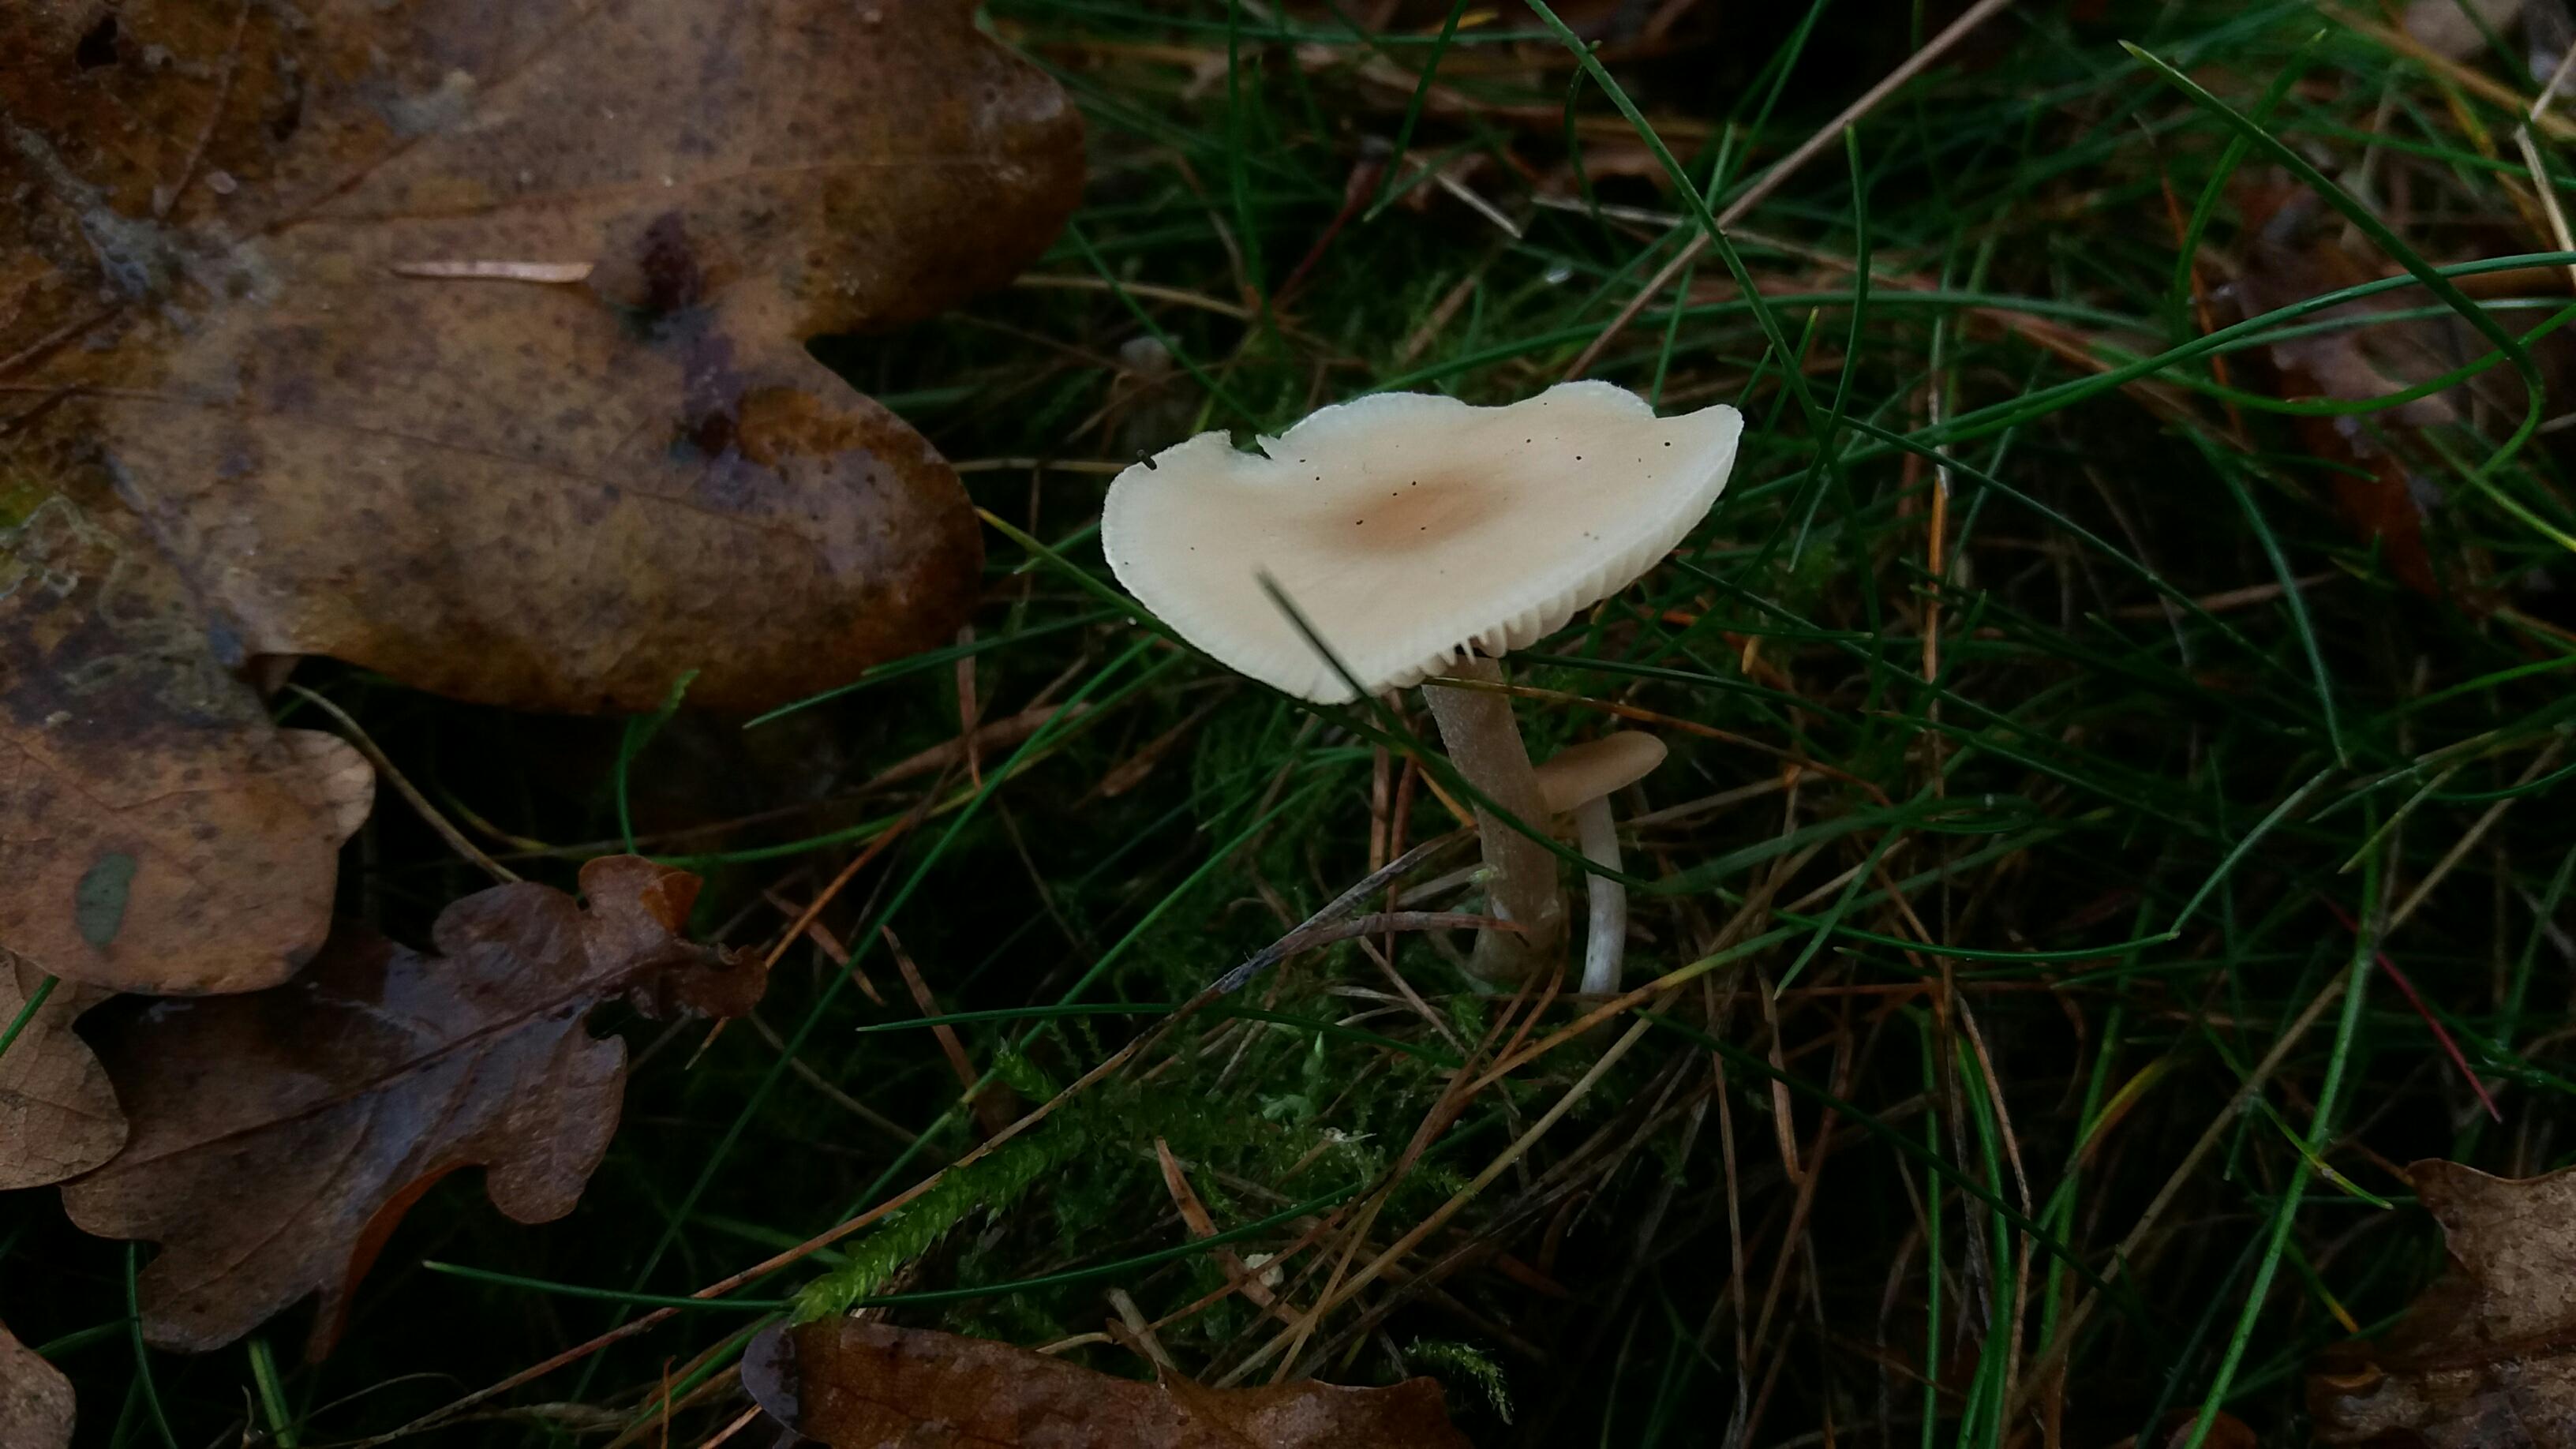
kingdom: Fungi
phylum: Basidiomycota
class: Agaricomycetes
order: Agaricales
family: Tricholomataceae
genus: Clitocybe
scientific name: Clitocybe fragrans
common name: vellugtende tragthat
